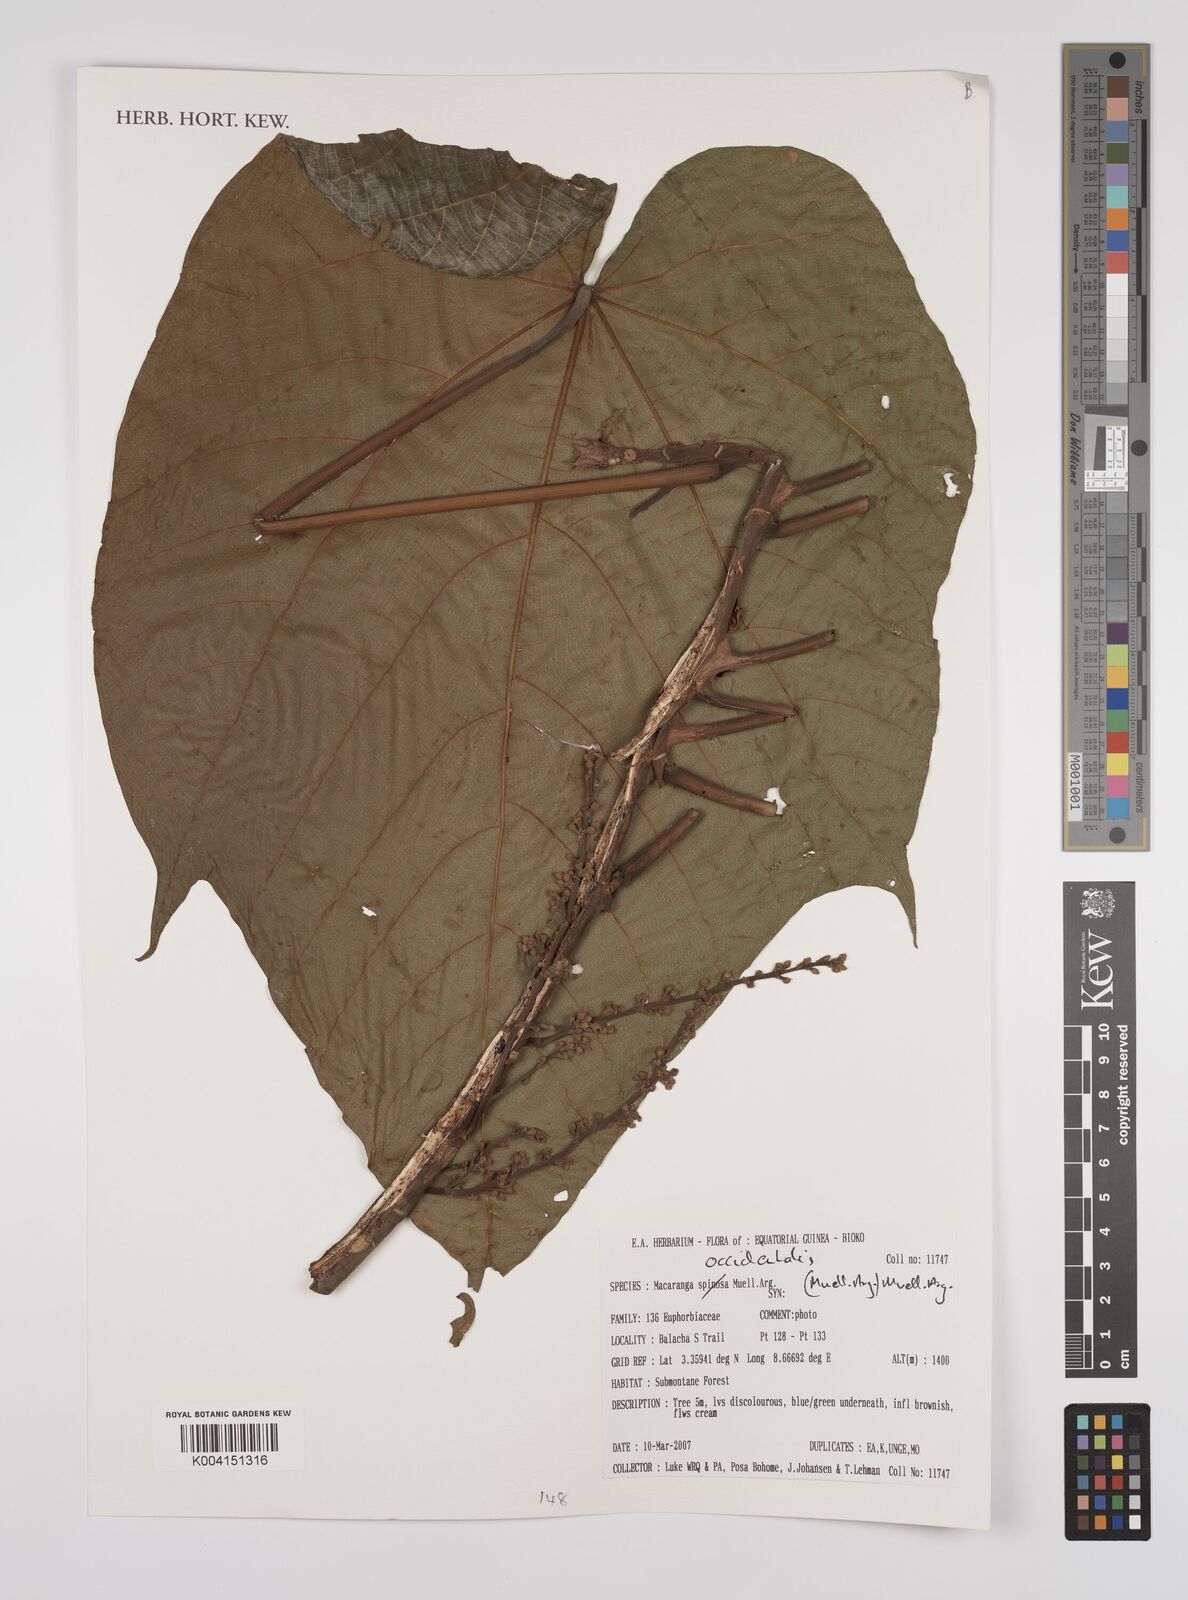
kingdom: Plantae
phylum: Tracheophyta
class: Magnoliopsida
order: Malpighiales
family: Euphorbiaceae
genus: Macaranga
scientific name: Macaranga occidentalis
